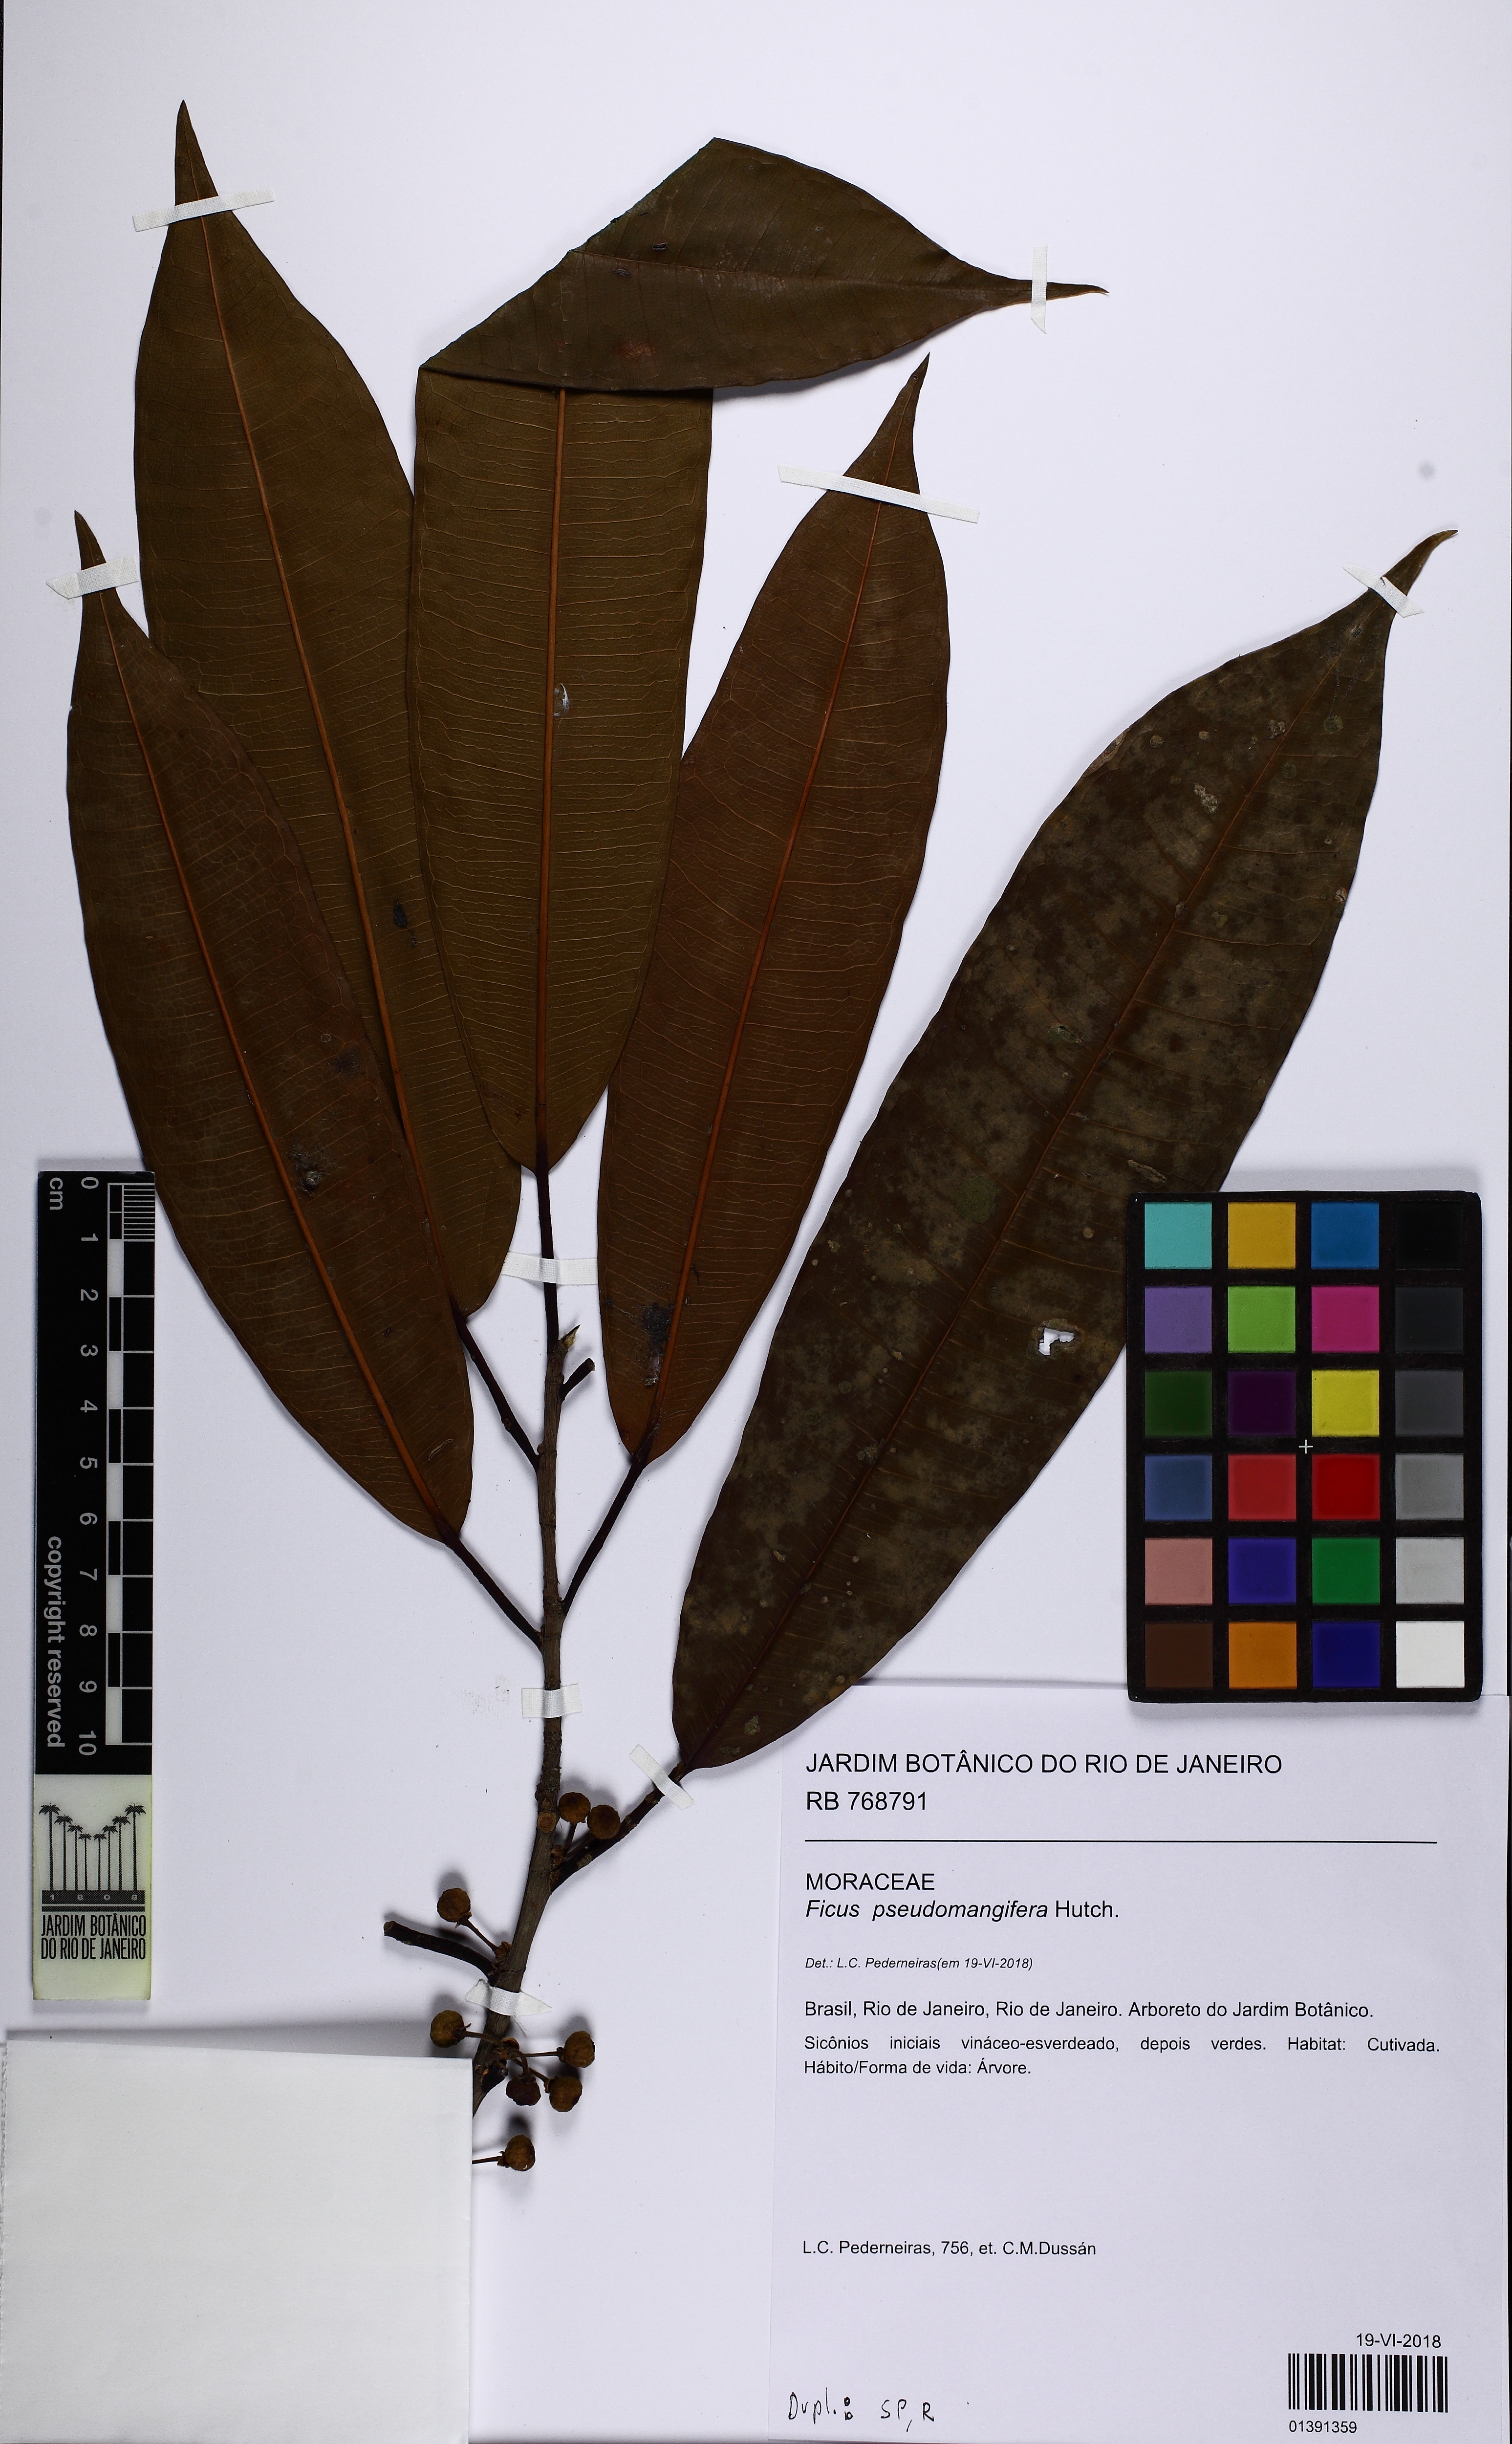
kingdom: Plantae
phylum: Tracheophyta
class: Magnoliopsida
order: Rosales
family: Moraceae
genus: Ficus
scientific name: Ficus pseudomangifera
